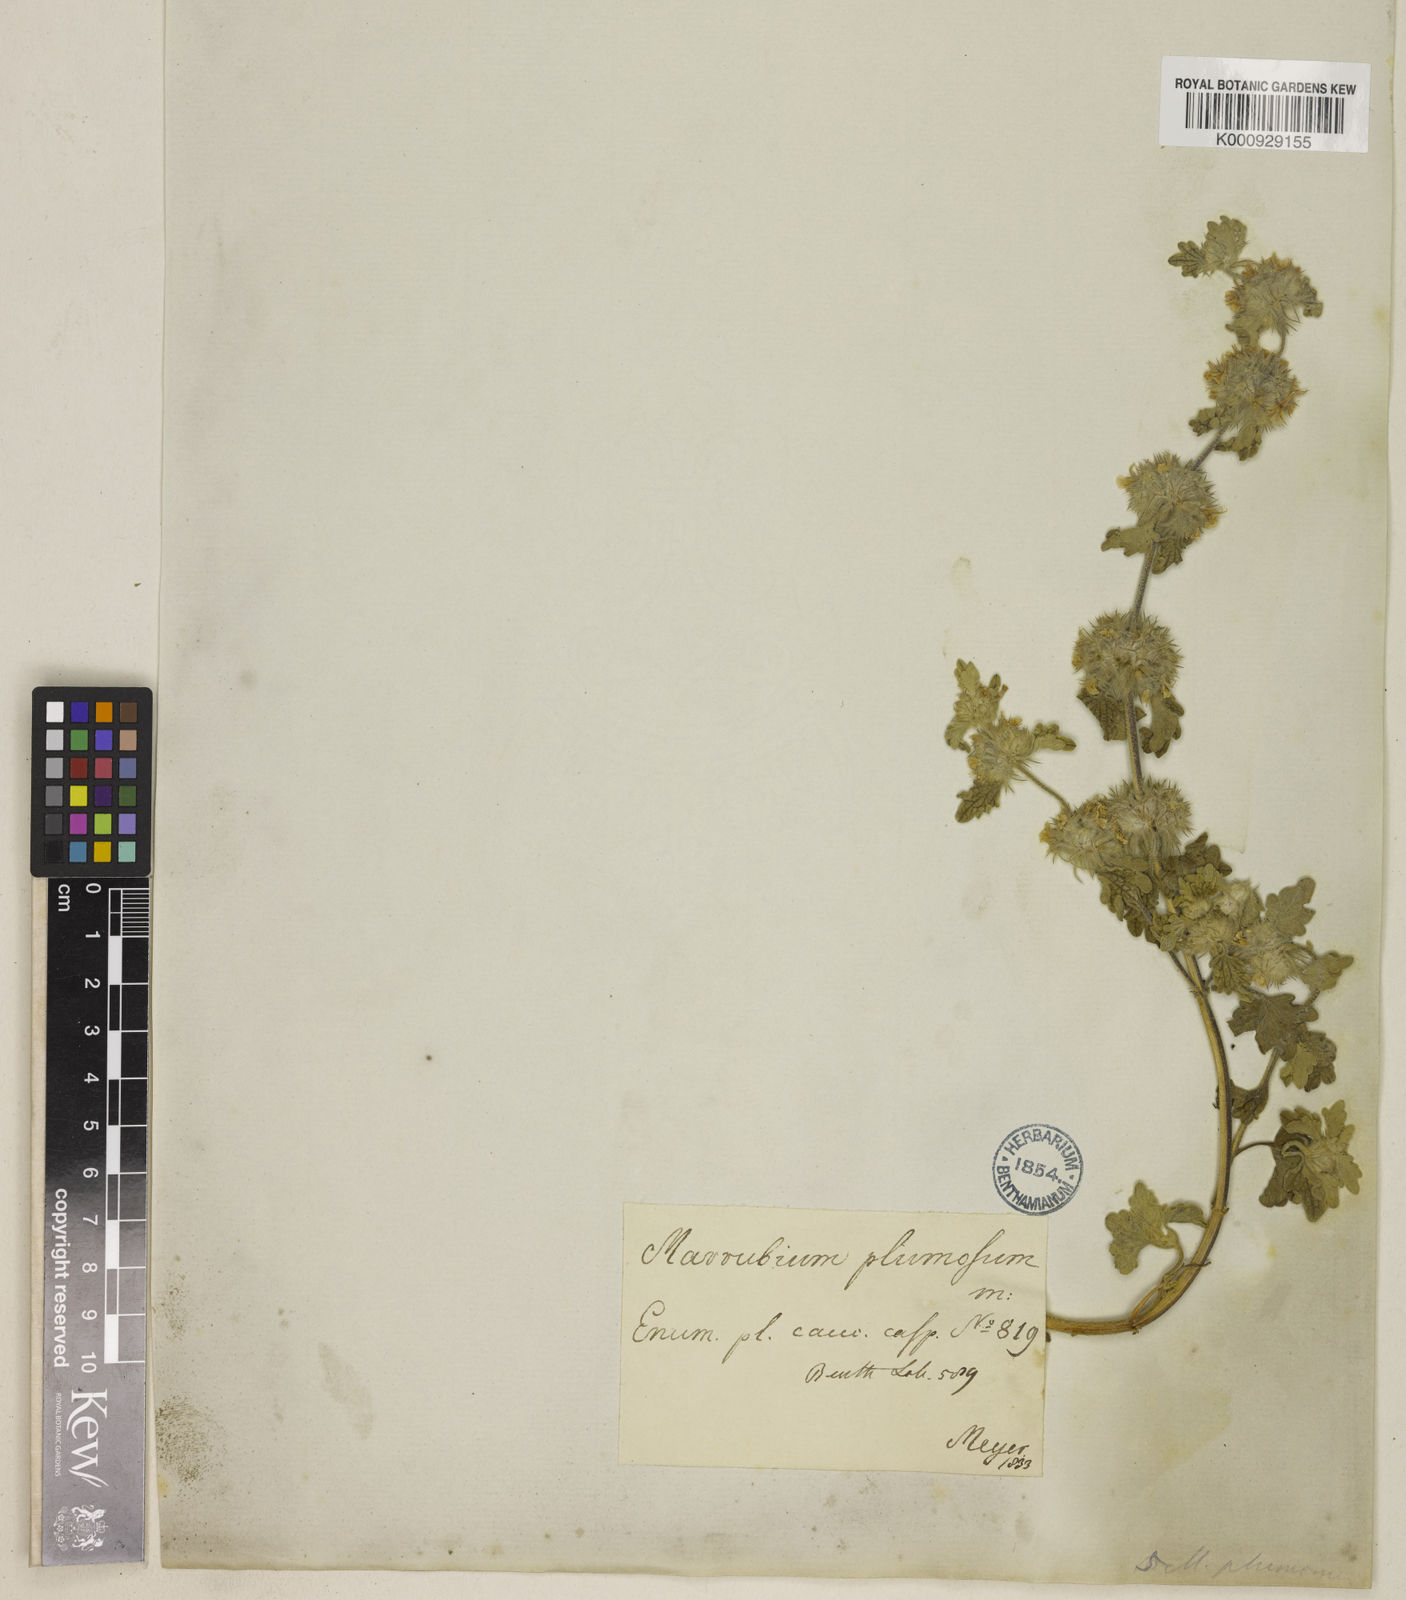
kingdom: Plantae
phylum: Tracheophyta
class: Magnoliopsida
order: Lamiales
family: Lamiaceae
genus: Marrubium
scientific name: Marrubium plumosum
